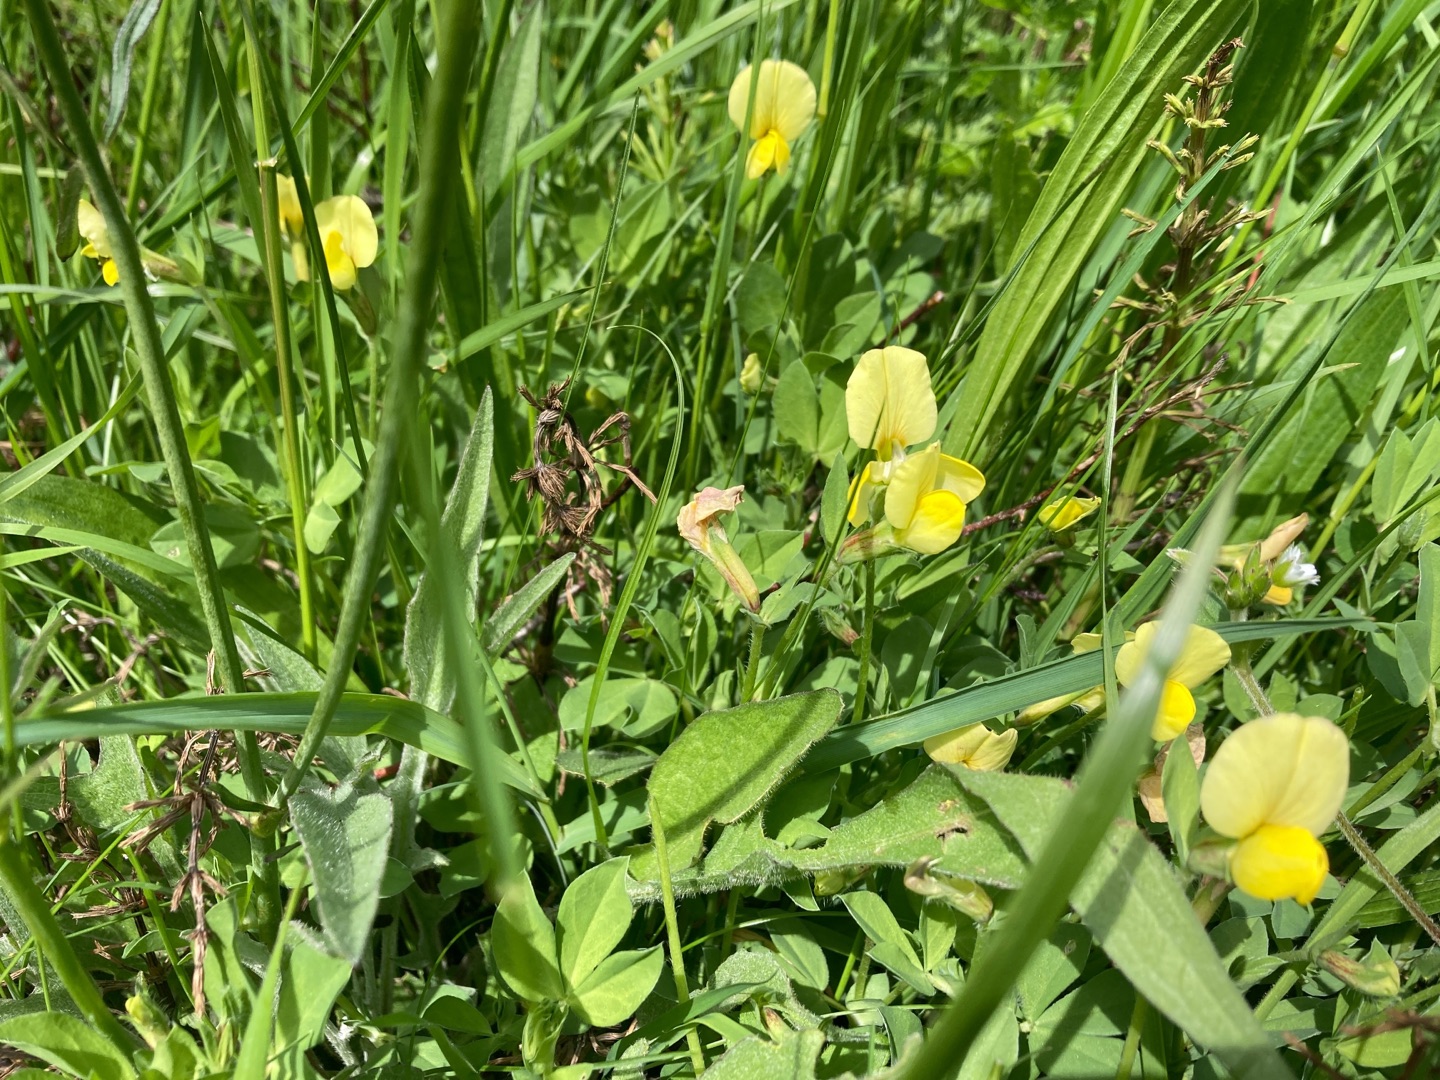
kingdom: Plantae
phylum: Tracheophyta
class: Magnoliopsida
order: Fabales
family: Fabaceae
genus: Lotus
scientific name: Lotus maritimus
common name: Kantbælg
